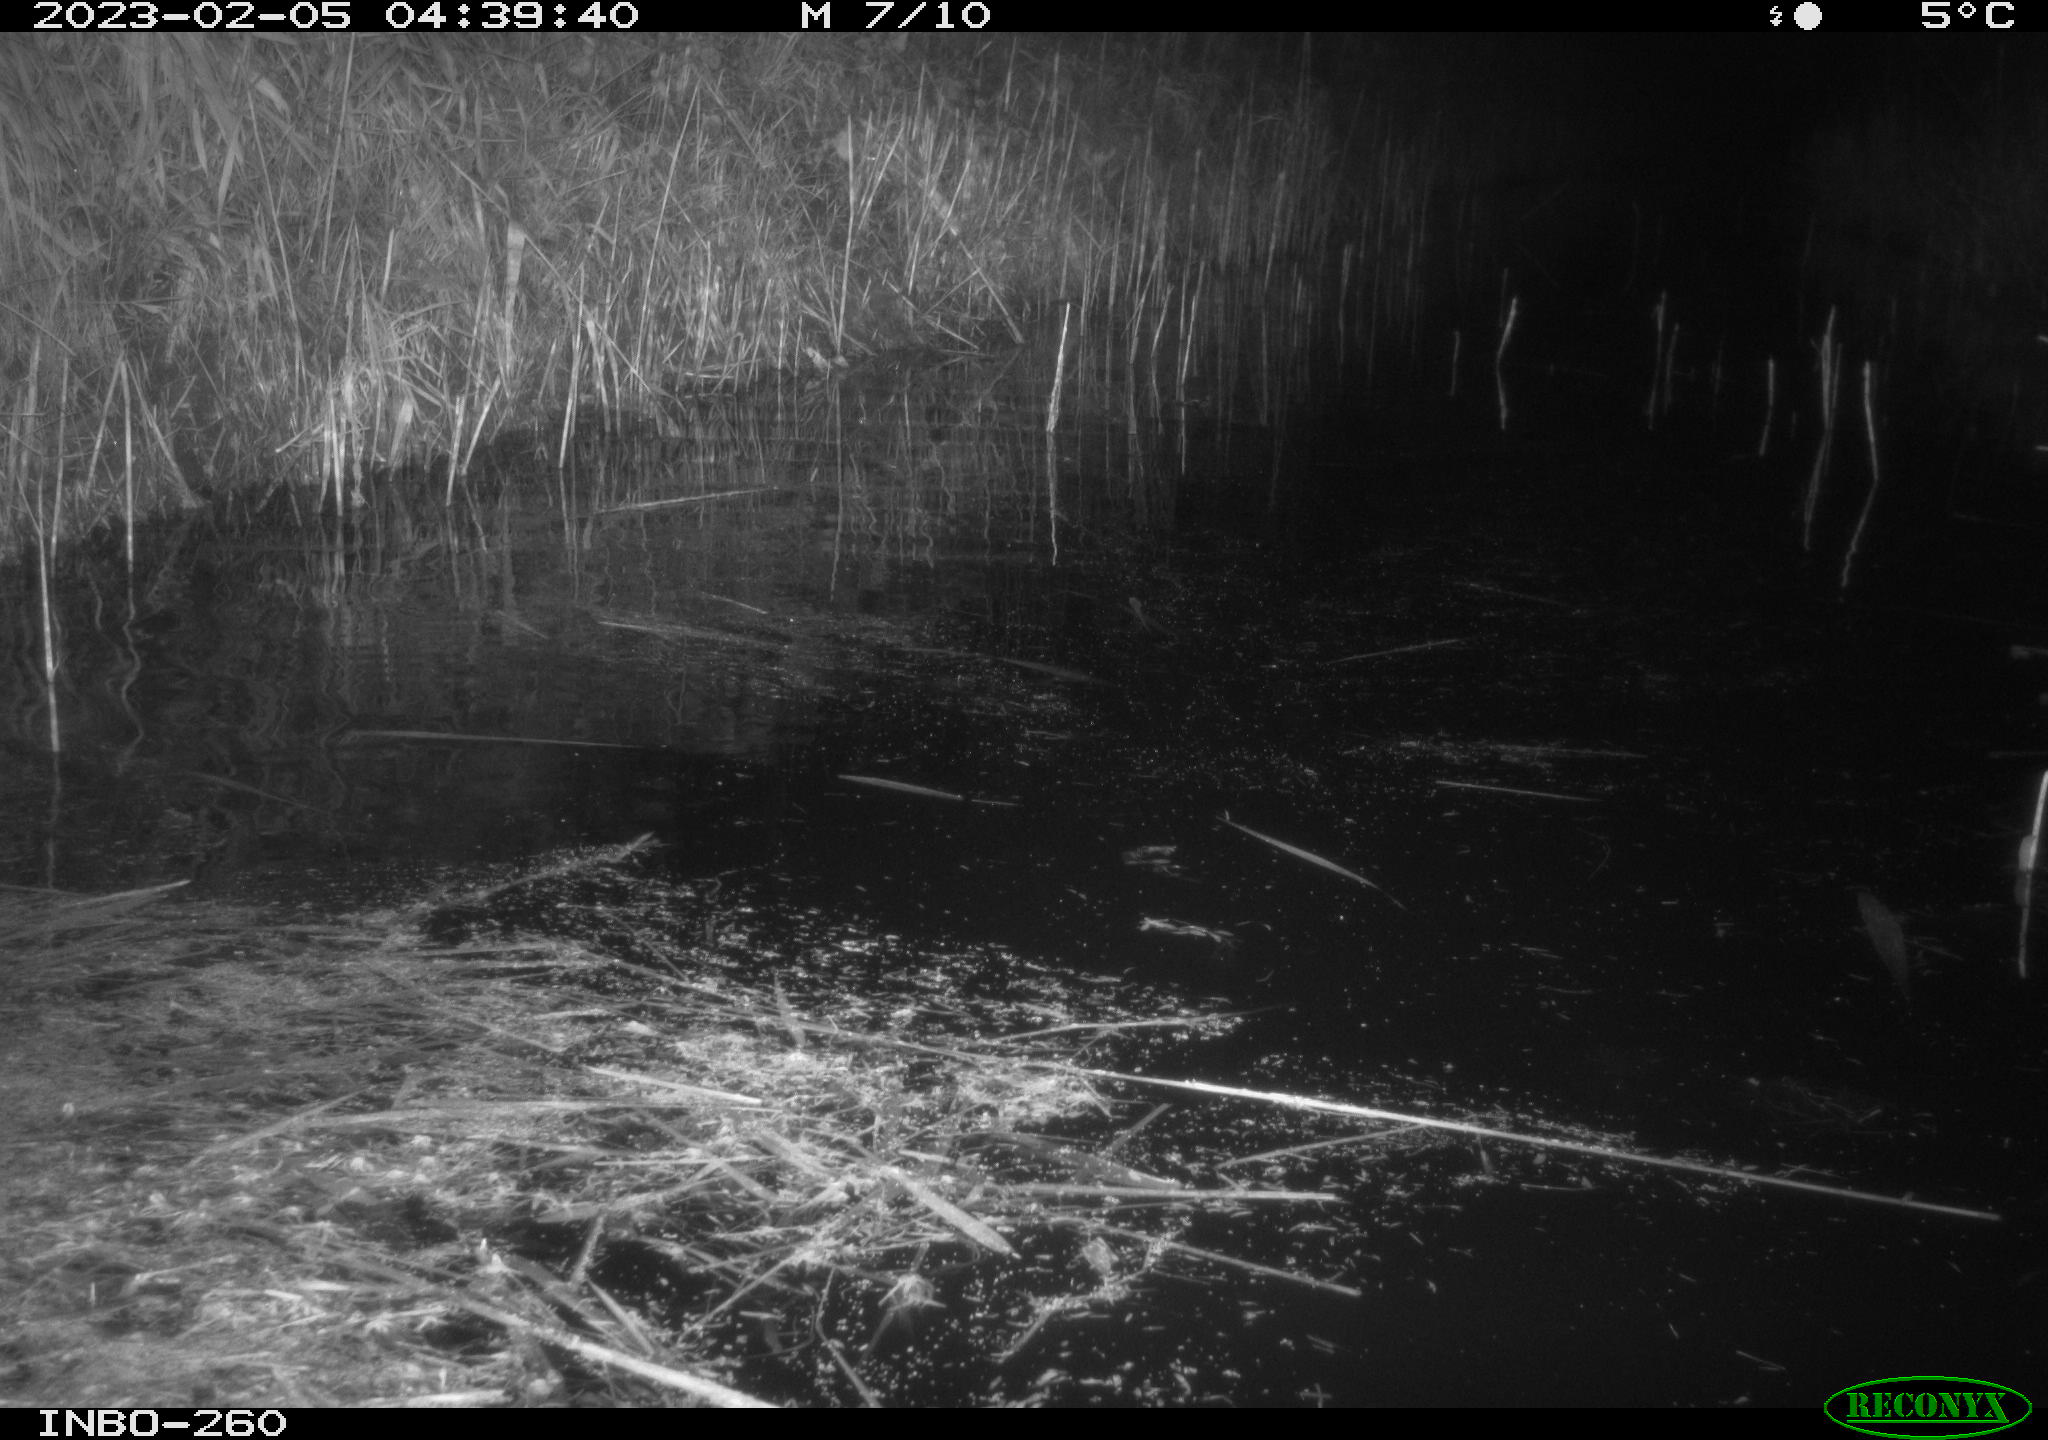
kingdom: Animalia
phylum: Chordata
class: Mammalia
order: Rodentia
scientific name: Rodentia
